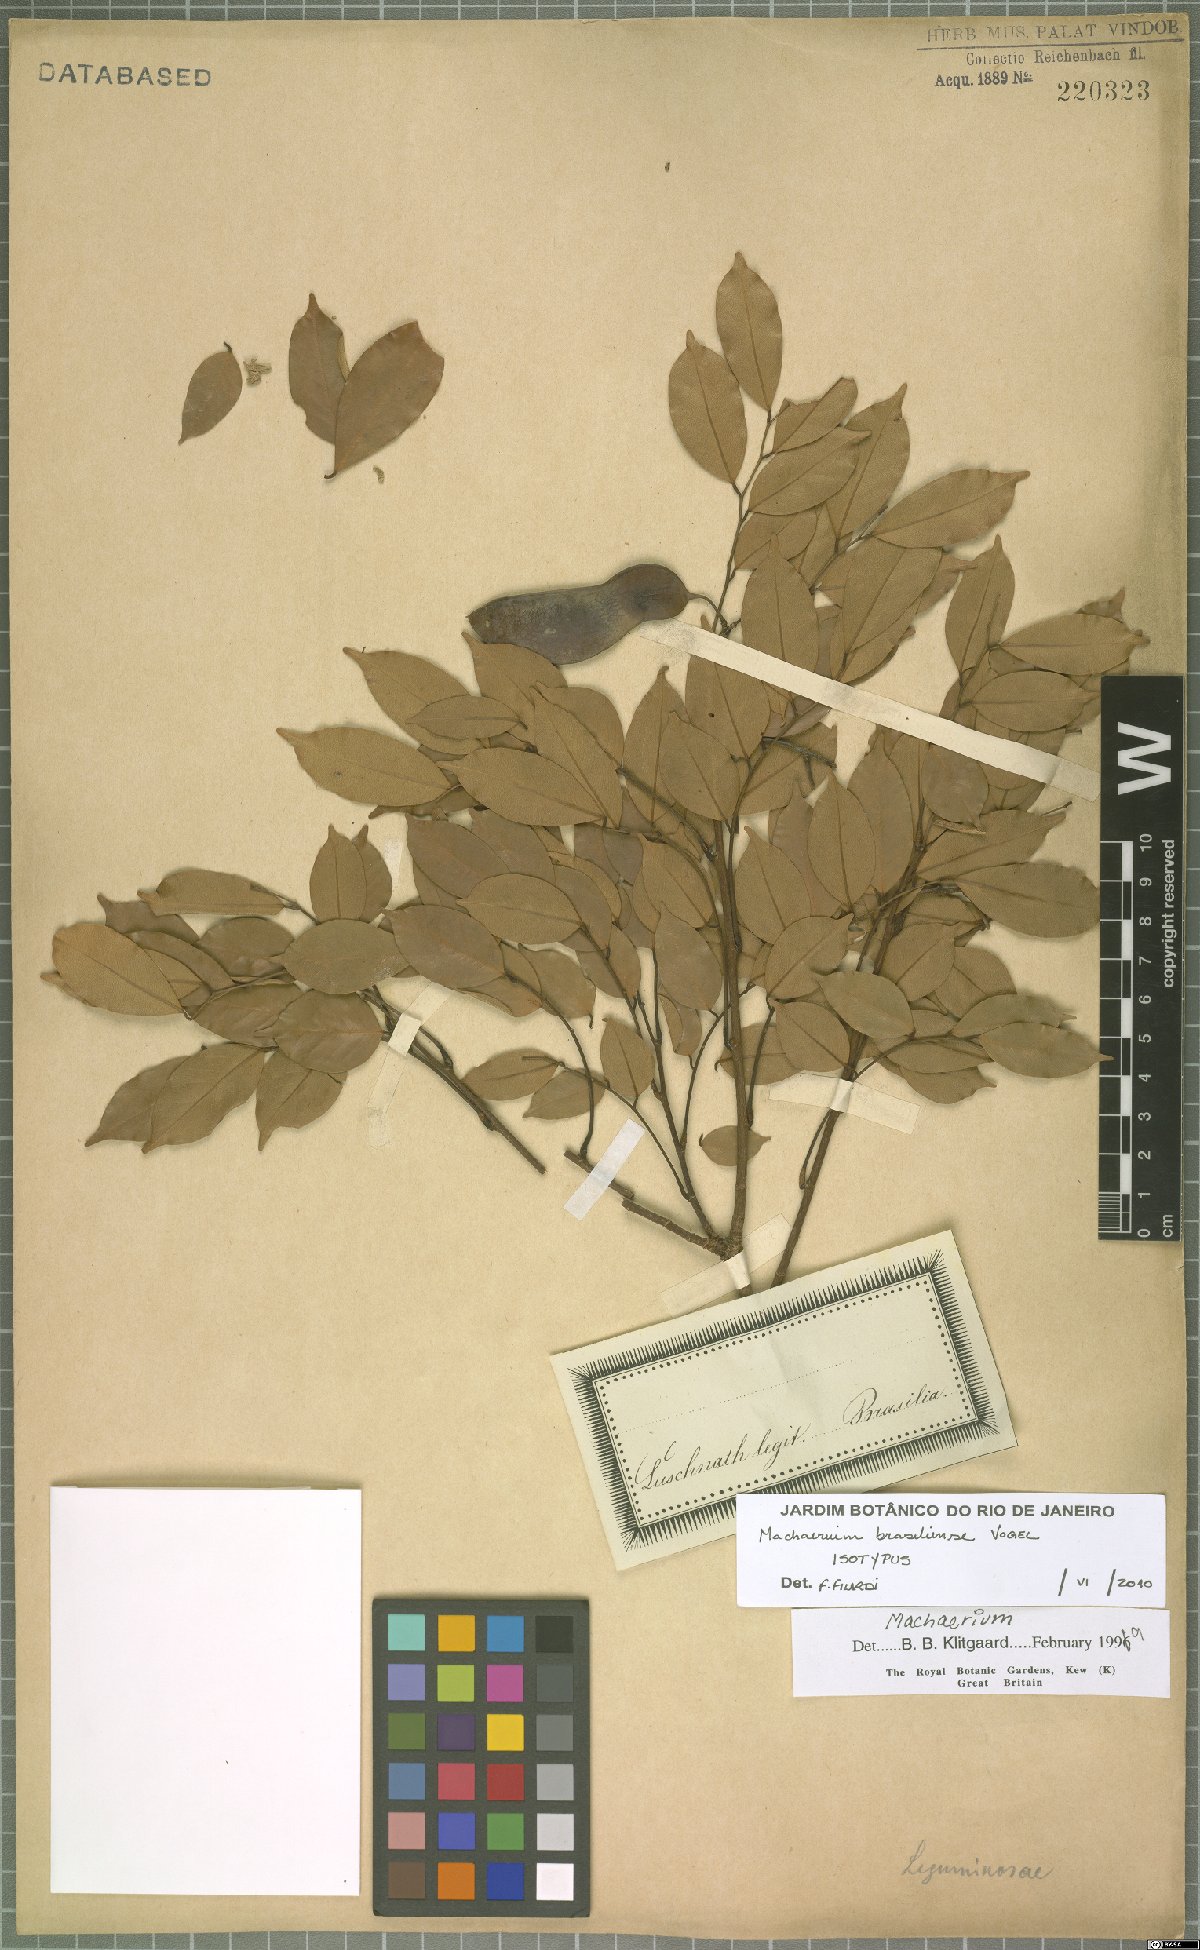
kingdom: Plantae
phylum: Tracheophyta
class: Magnoliopsida
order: Fabales
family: Fabaceae
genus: Machaerium
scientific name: Machaerium brasiliense
